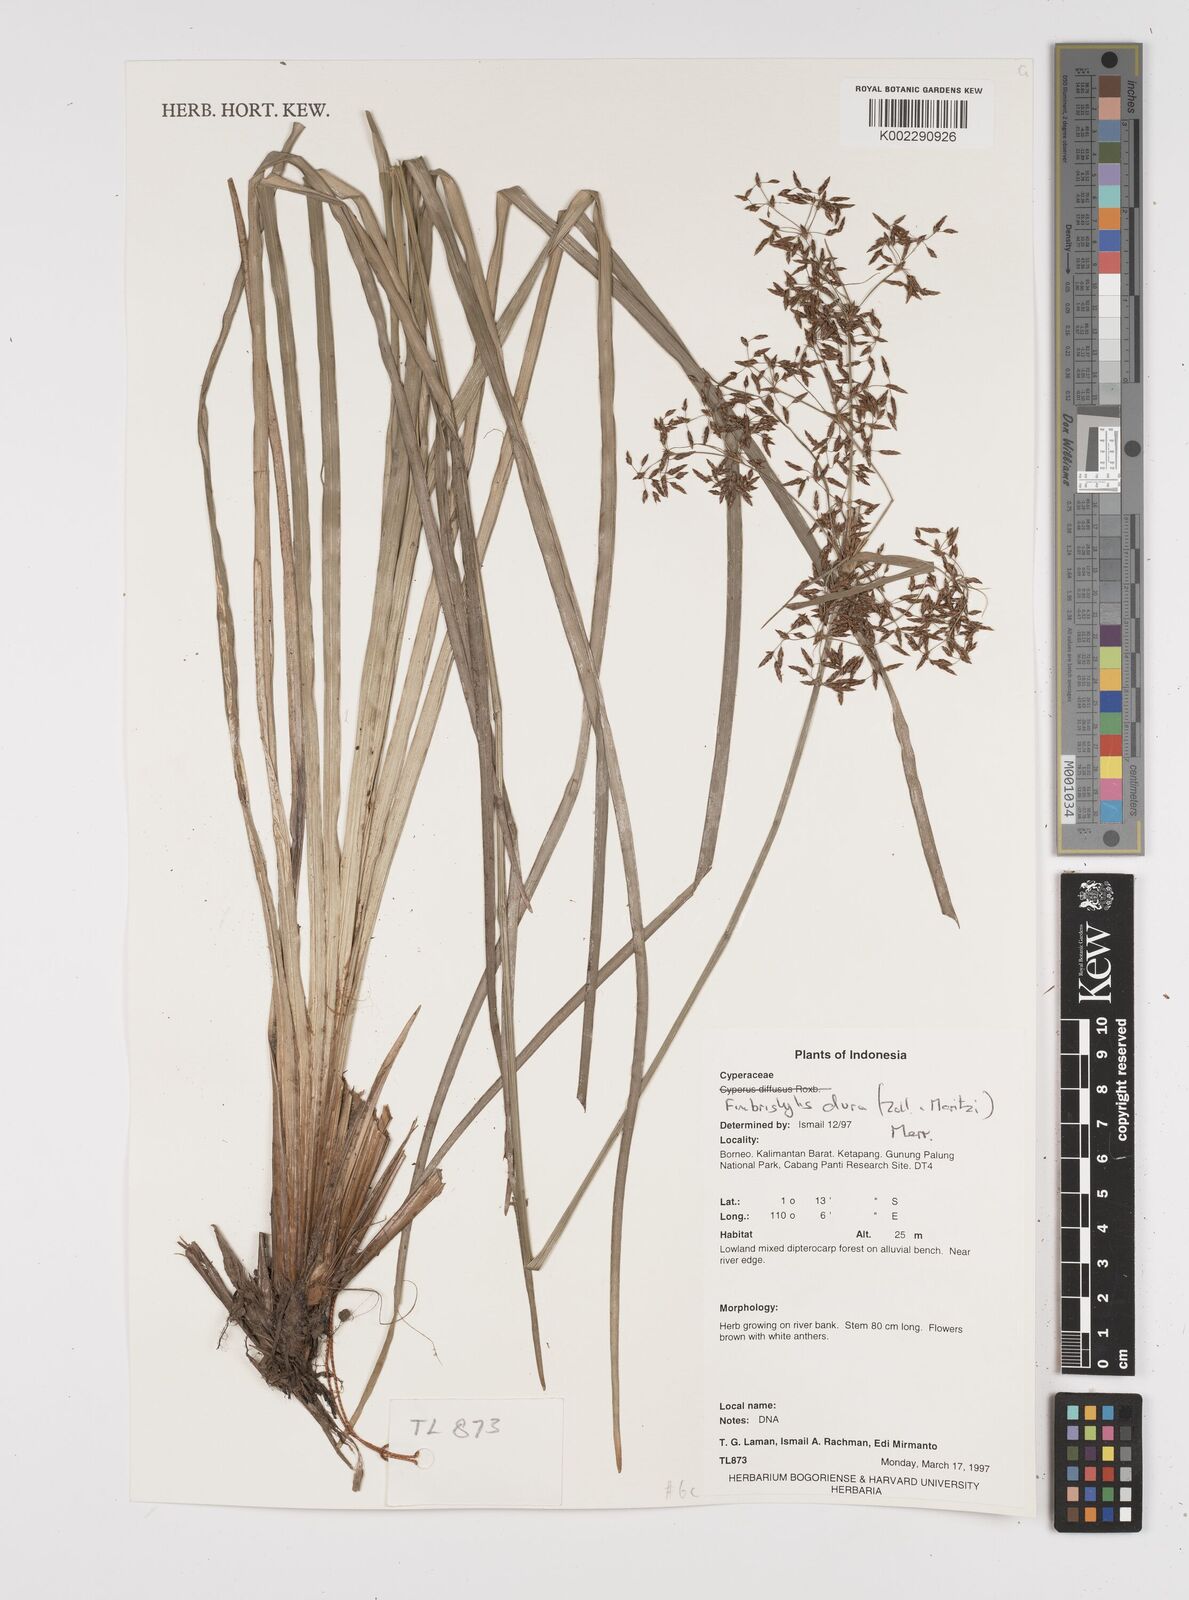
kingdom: Plantae
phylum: Tracheophyta
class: Liliopsida
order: Poales
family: Cyperaceae
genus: Fimbristylis
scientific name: Fimbristylis dura
